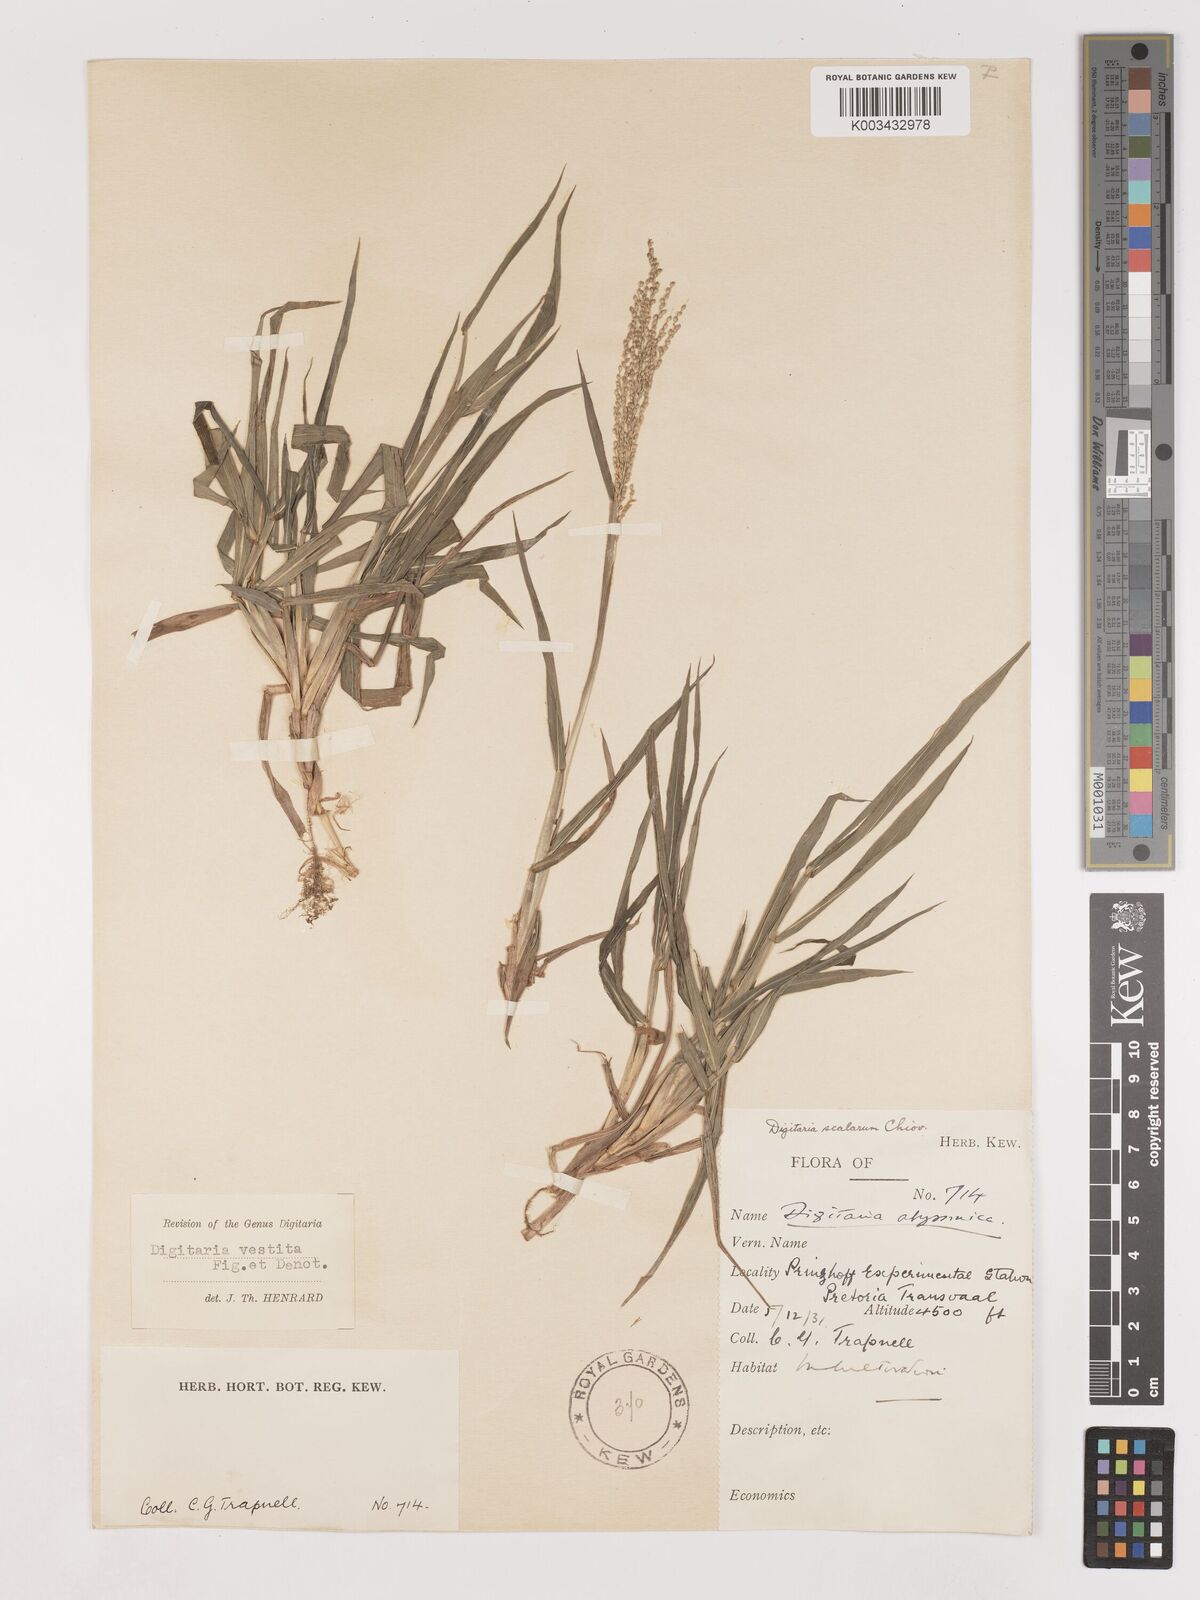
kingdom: Plantae
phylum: Tracheophyta
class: Liliopsida
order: Poales
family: Poaceae
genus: Digitaria
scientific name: Digitaria abyssinica
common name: African couchgrass
